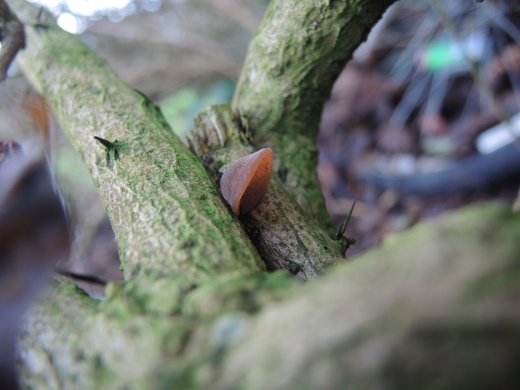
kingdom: Fungi
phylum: Basidiomycota
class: Agaricomycetes
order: Auriculariales
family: Auriculariaceae
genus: Auricularia
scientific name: Auricularia auricula-judae
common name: almindelig judasøre
